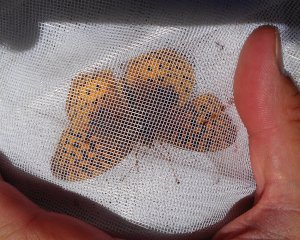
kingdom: Animalia
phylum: Arthropoda
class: Insecta
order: Lepidoptera
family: Nymphalidae
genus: Speyeria
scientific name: Speyeria cybele
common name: Great Spangled Fritillary
